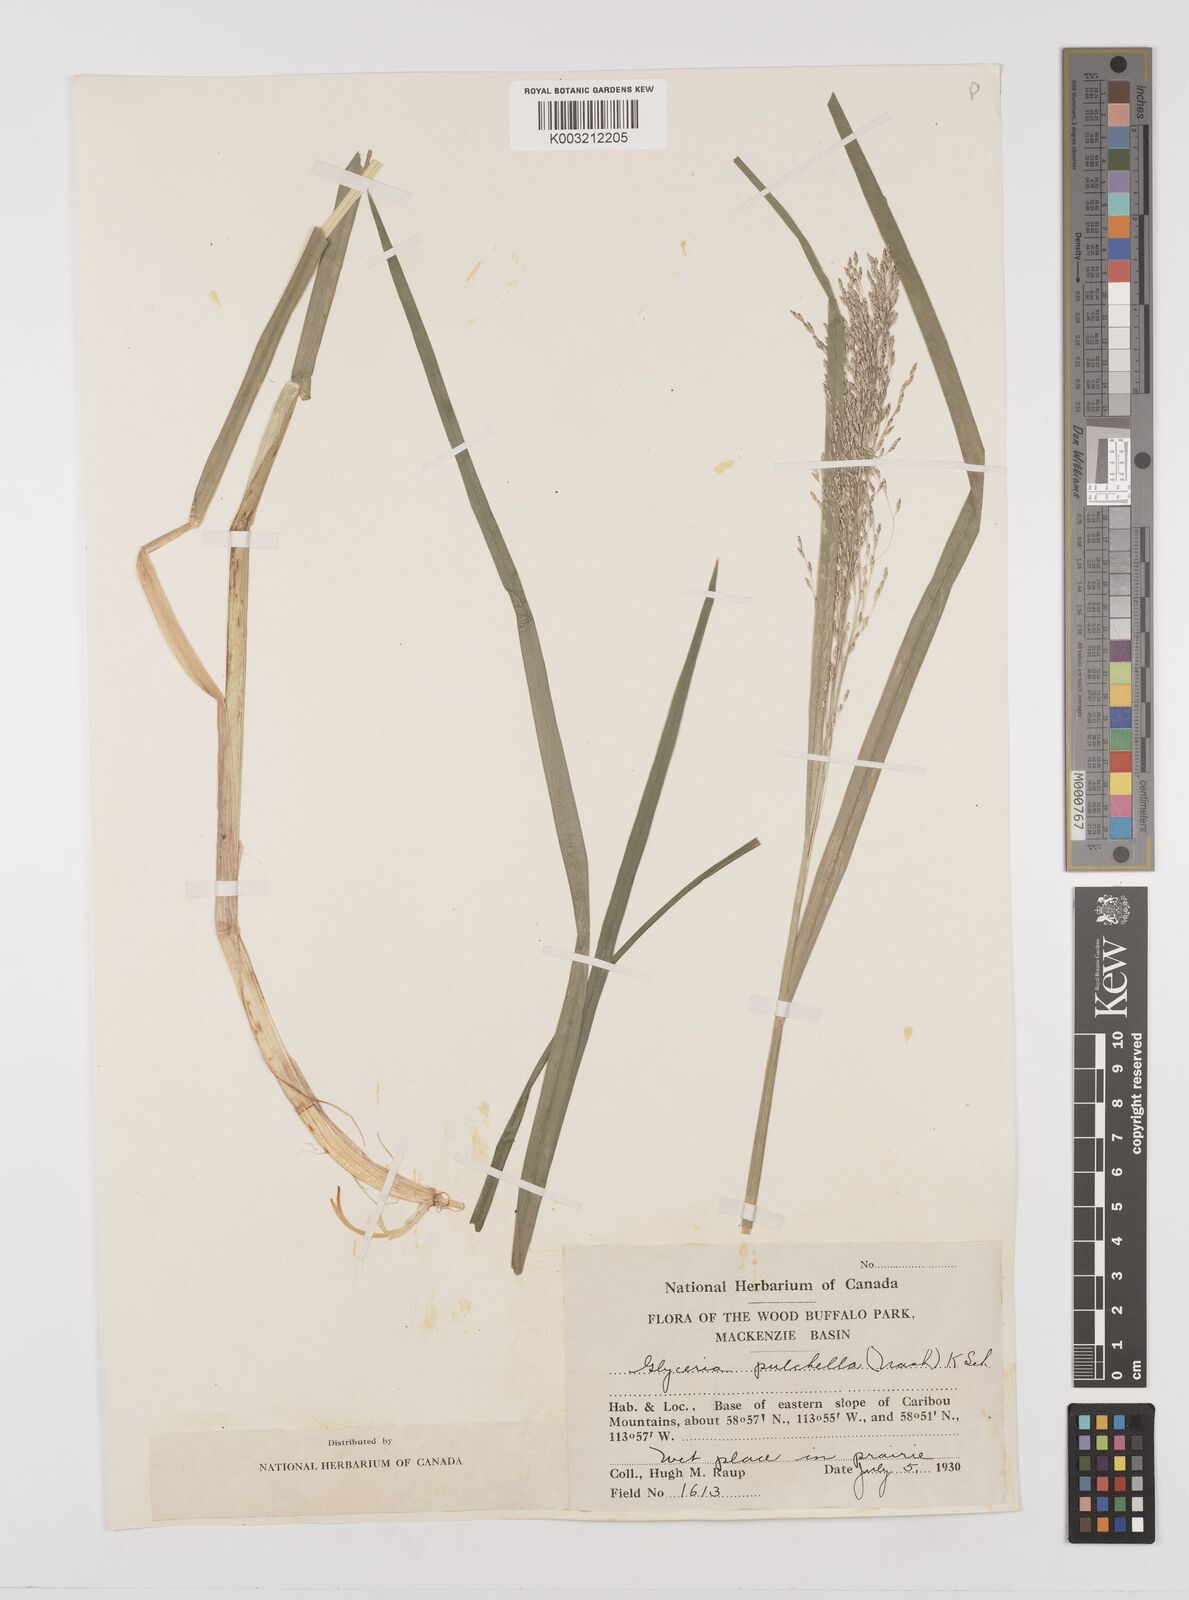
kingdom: Plantae
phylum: Tracheophyta
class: Liliopsida
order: Poales
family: Poaceae
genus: Glyceria
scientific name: Glyceria
